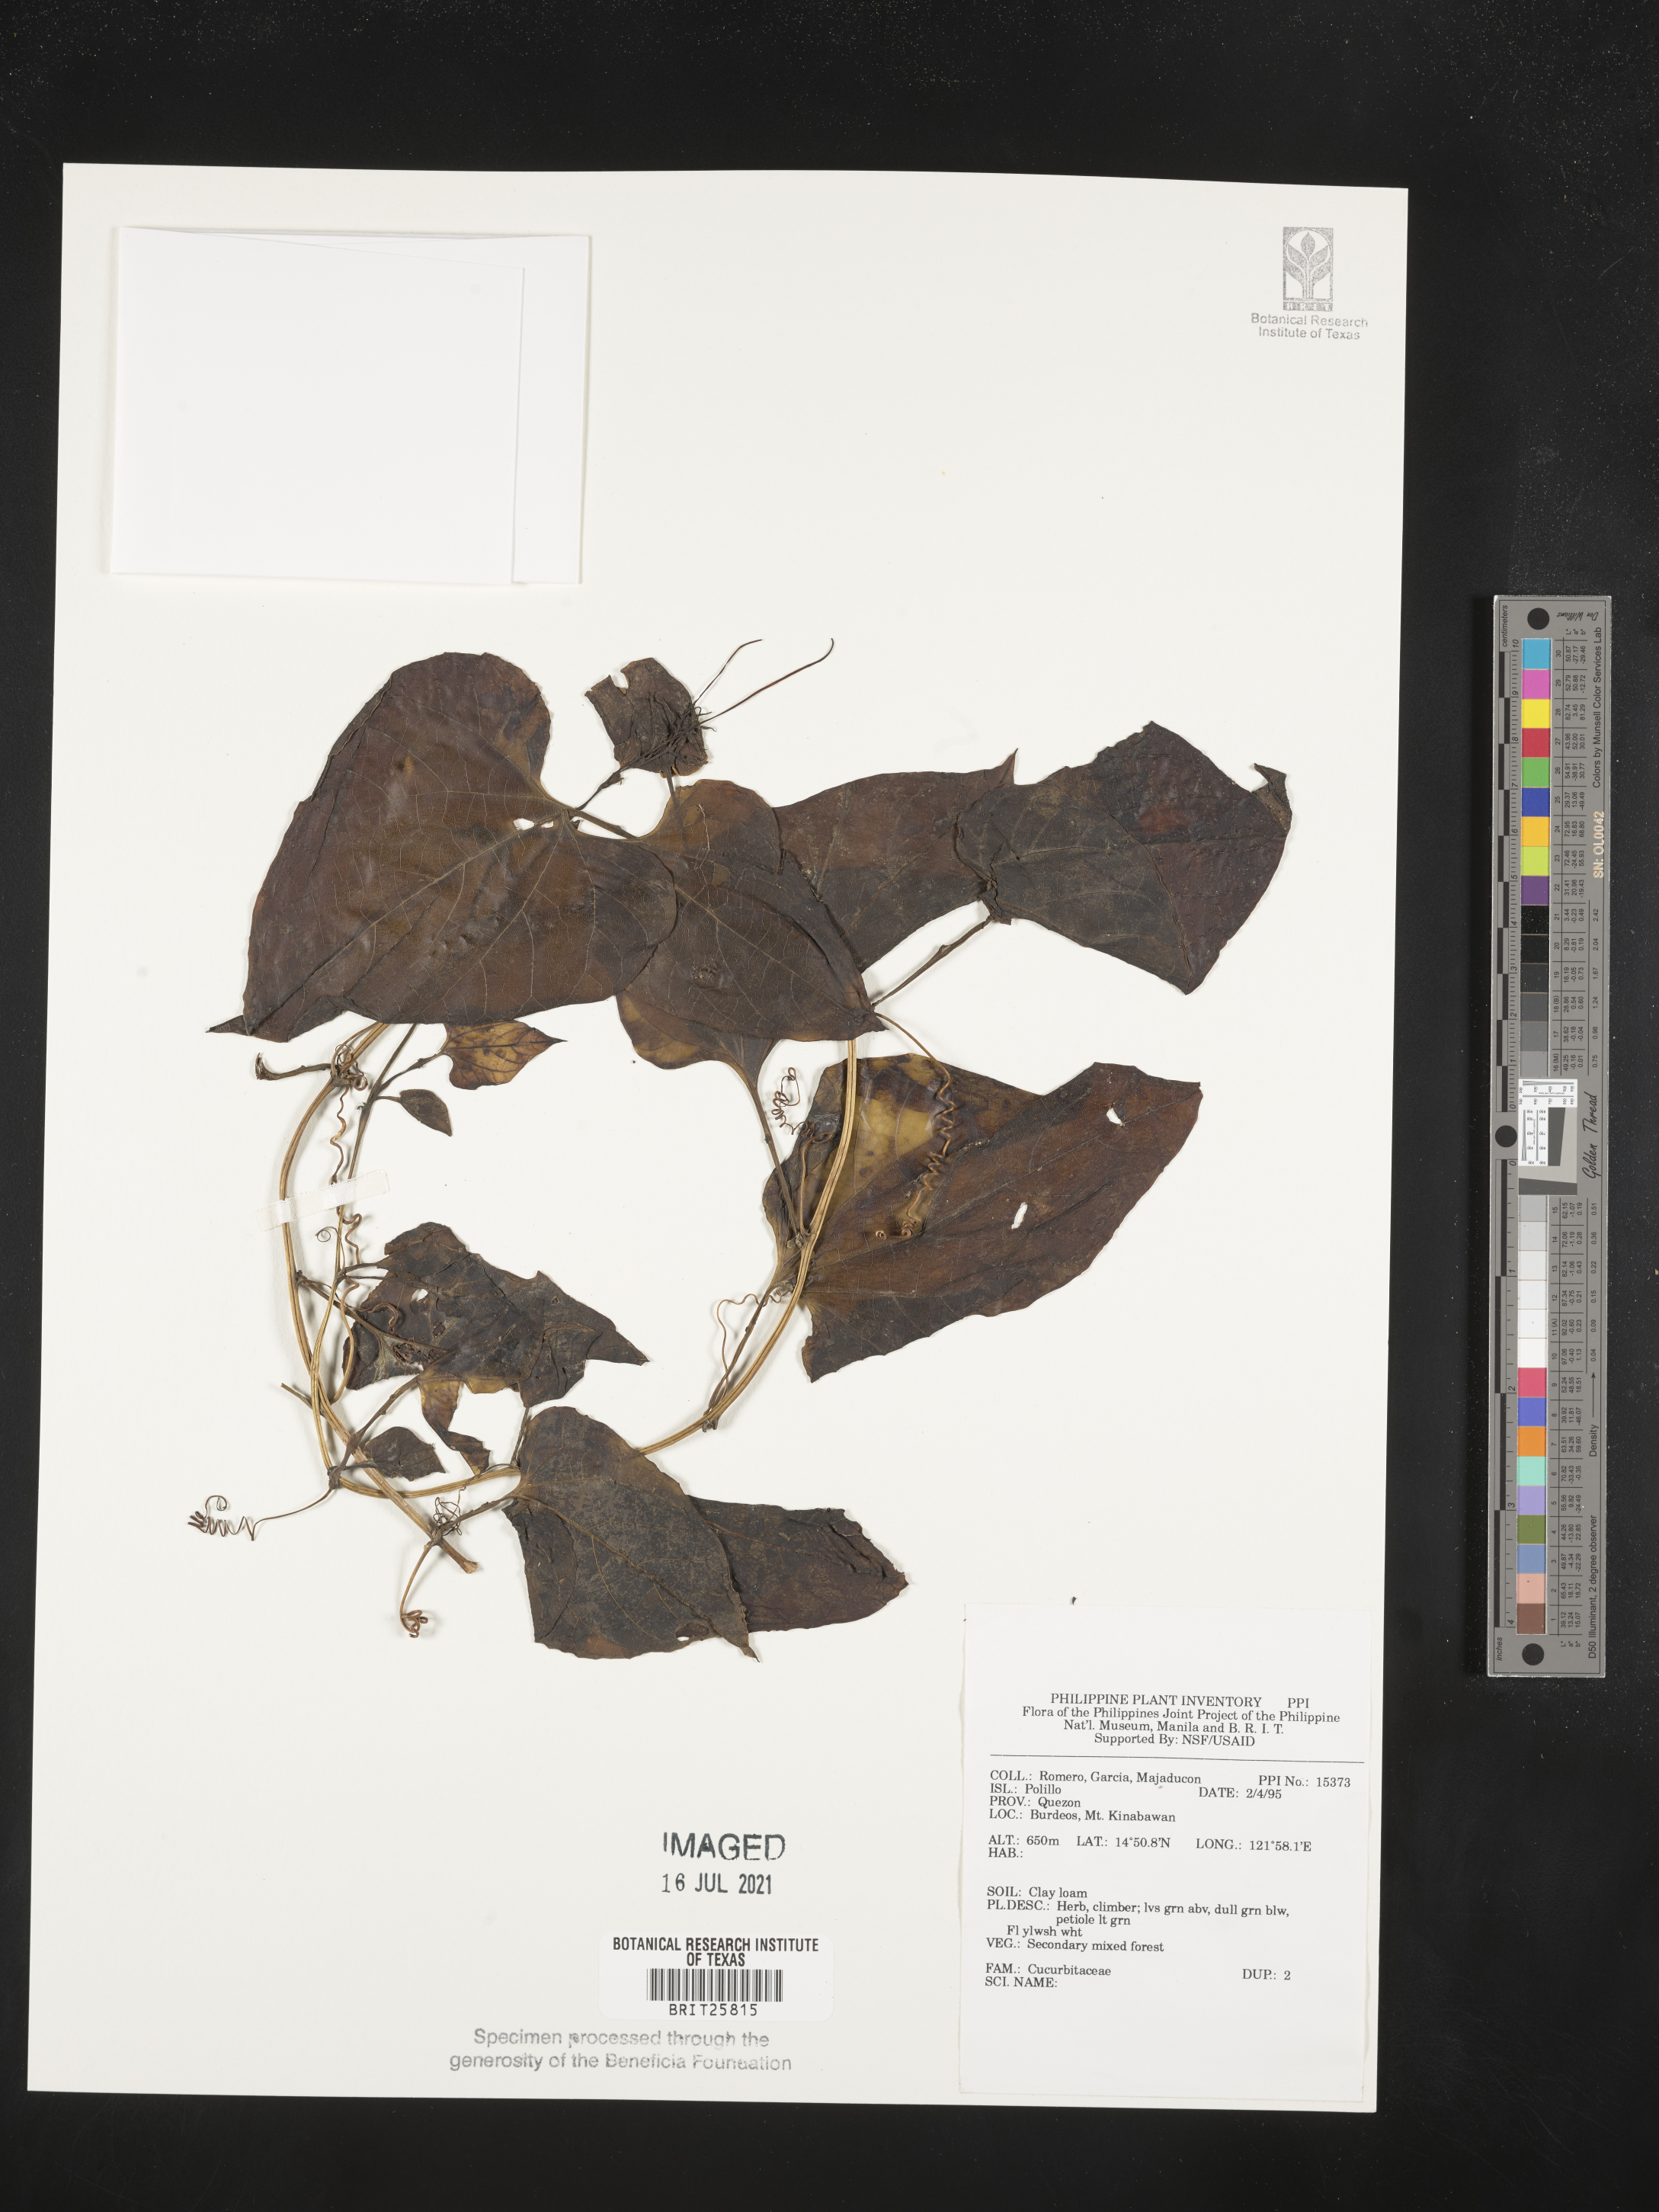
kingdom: Plantae
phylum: Tracheophyta
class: Magnoliopsida
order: Cucurbitales
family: Cucurbitaceae
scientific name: Cucurbitaceae
